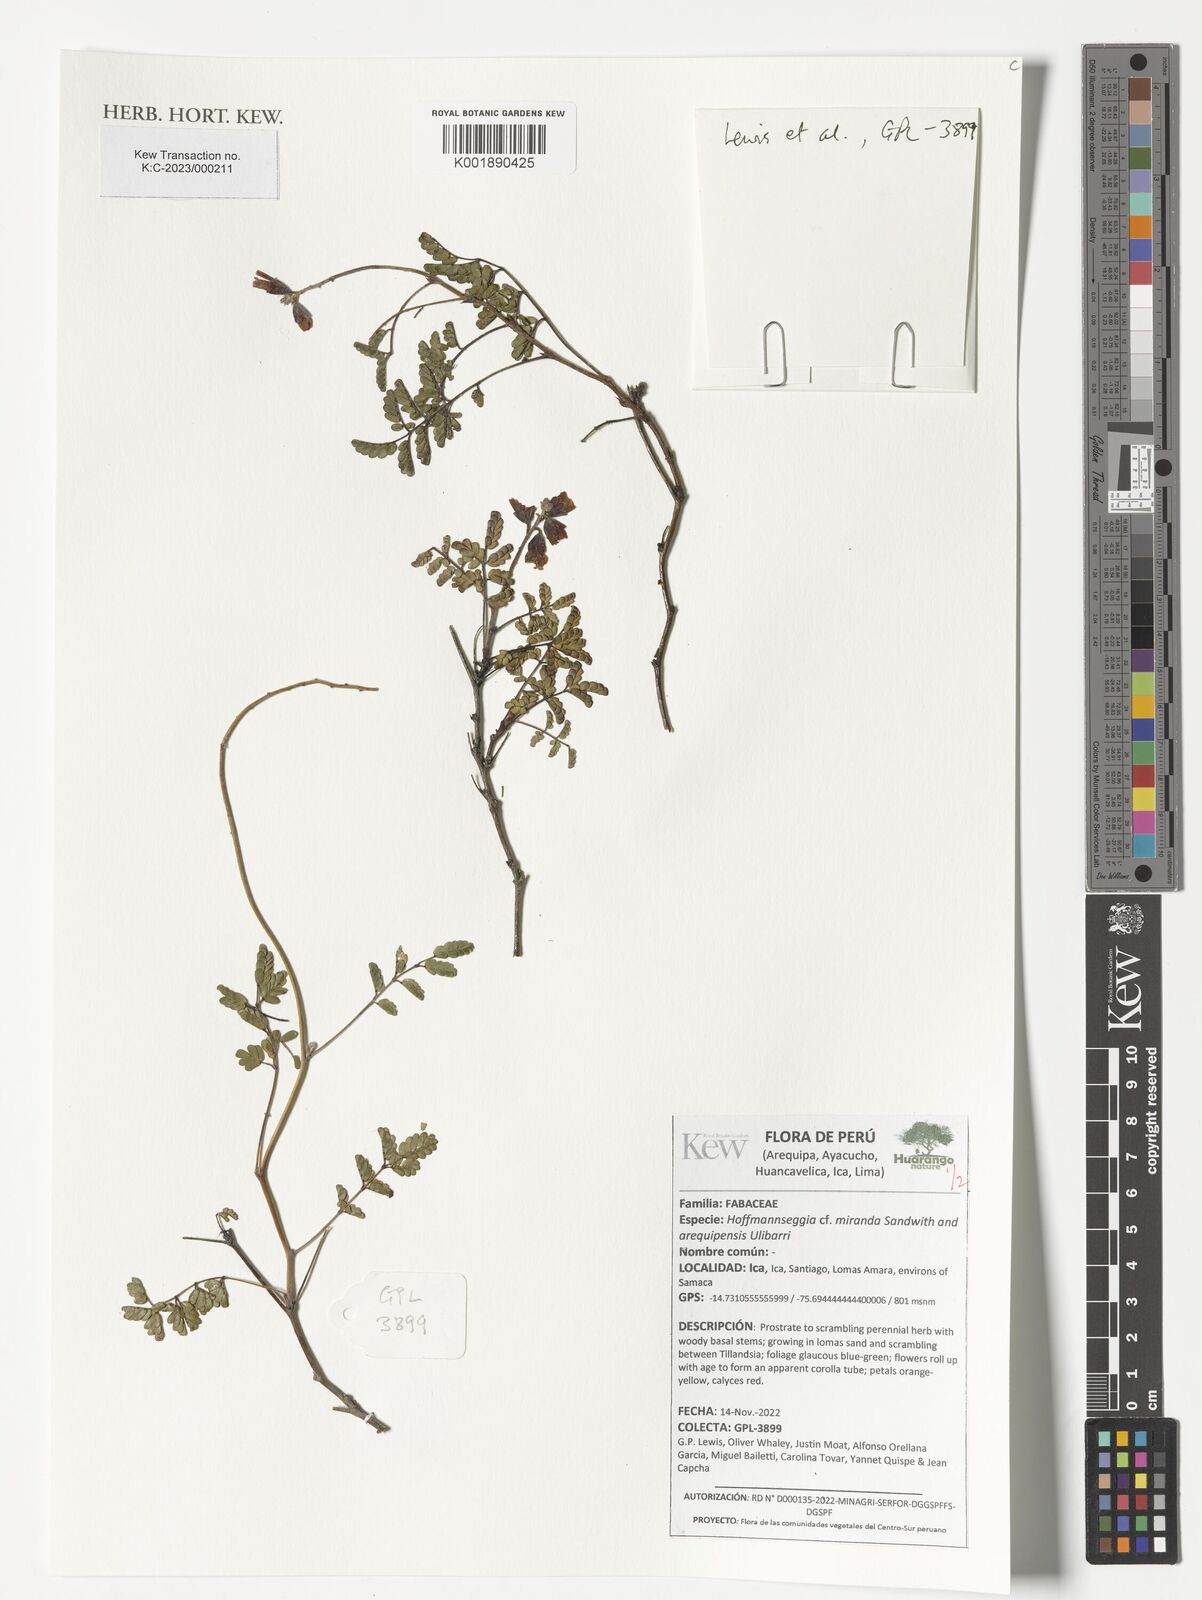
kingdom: Plantae
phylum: Tracheophyta
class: Magnoliopsida
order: Fabales
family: Fabaceae
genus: Calliandra
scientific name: Calliandra taxifolia
